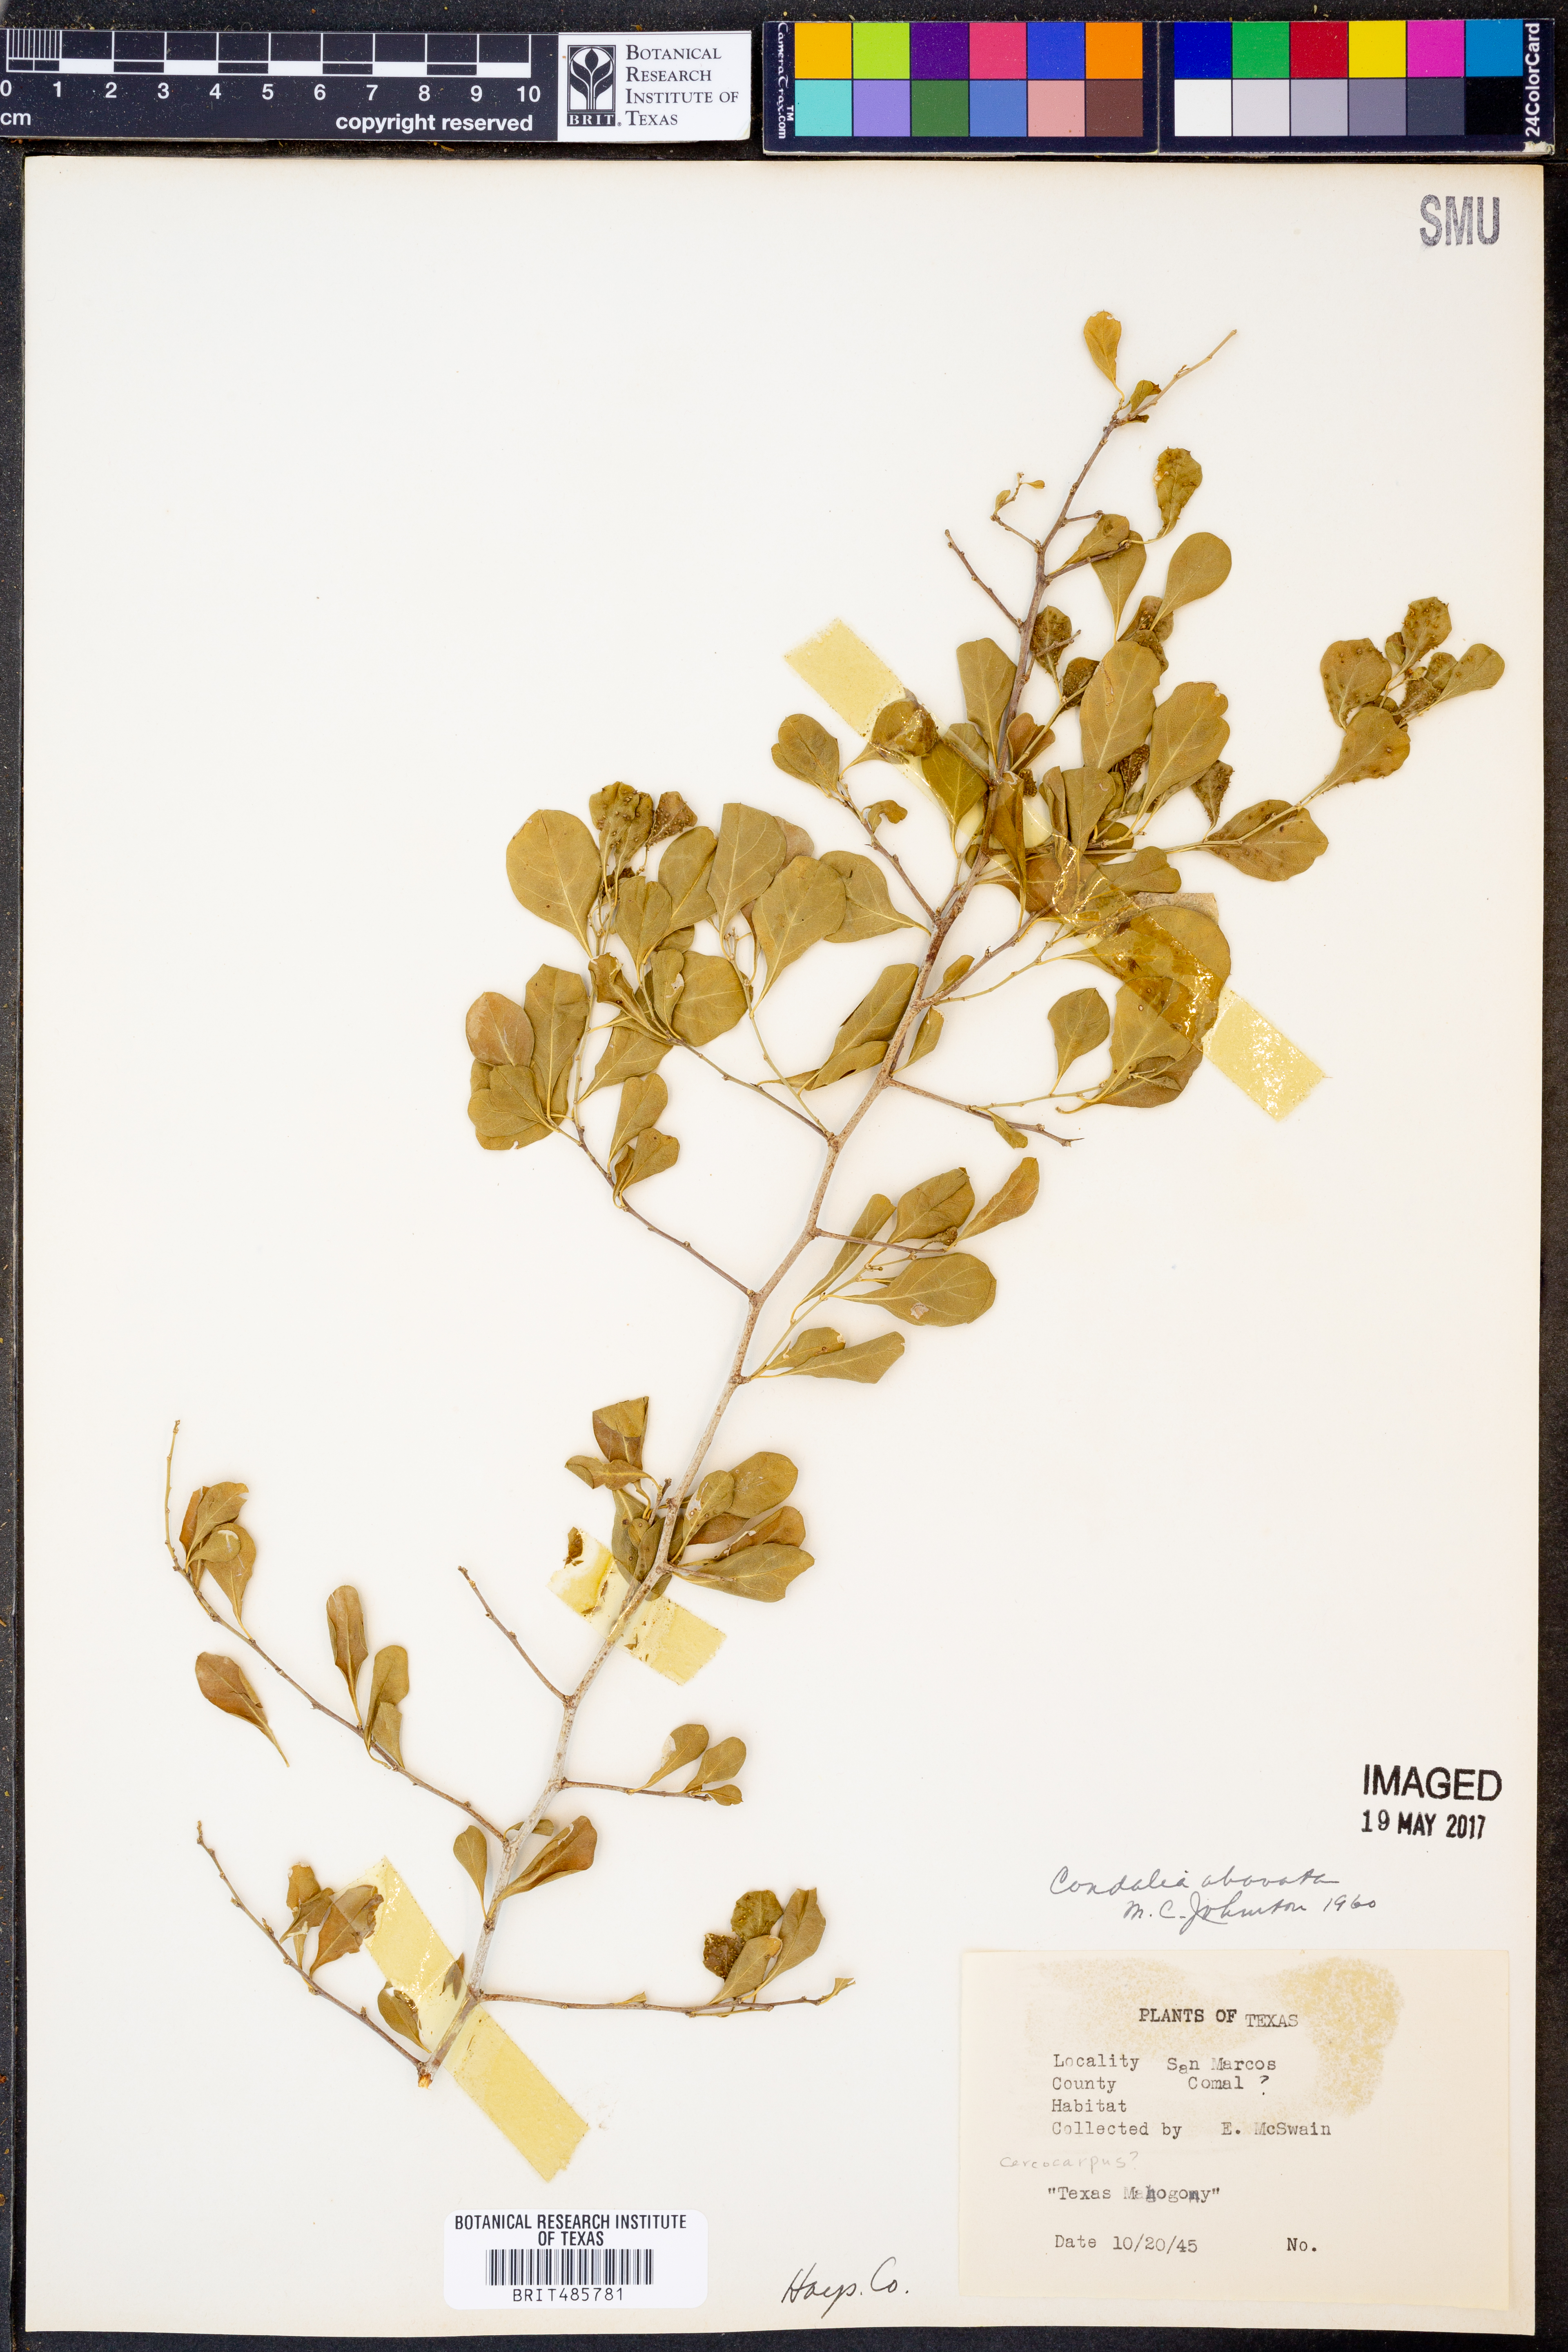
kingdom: Plantae
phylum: Tracheophyta
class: Magnoliopsida
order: Rosales
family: Rhamnaceae
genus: Condalia
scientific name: Condalia hookeri
